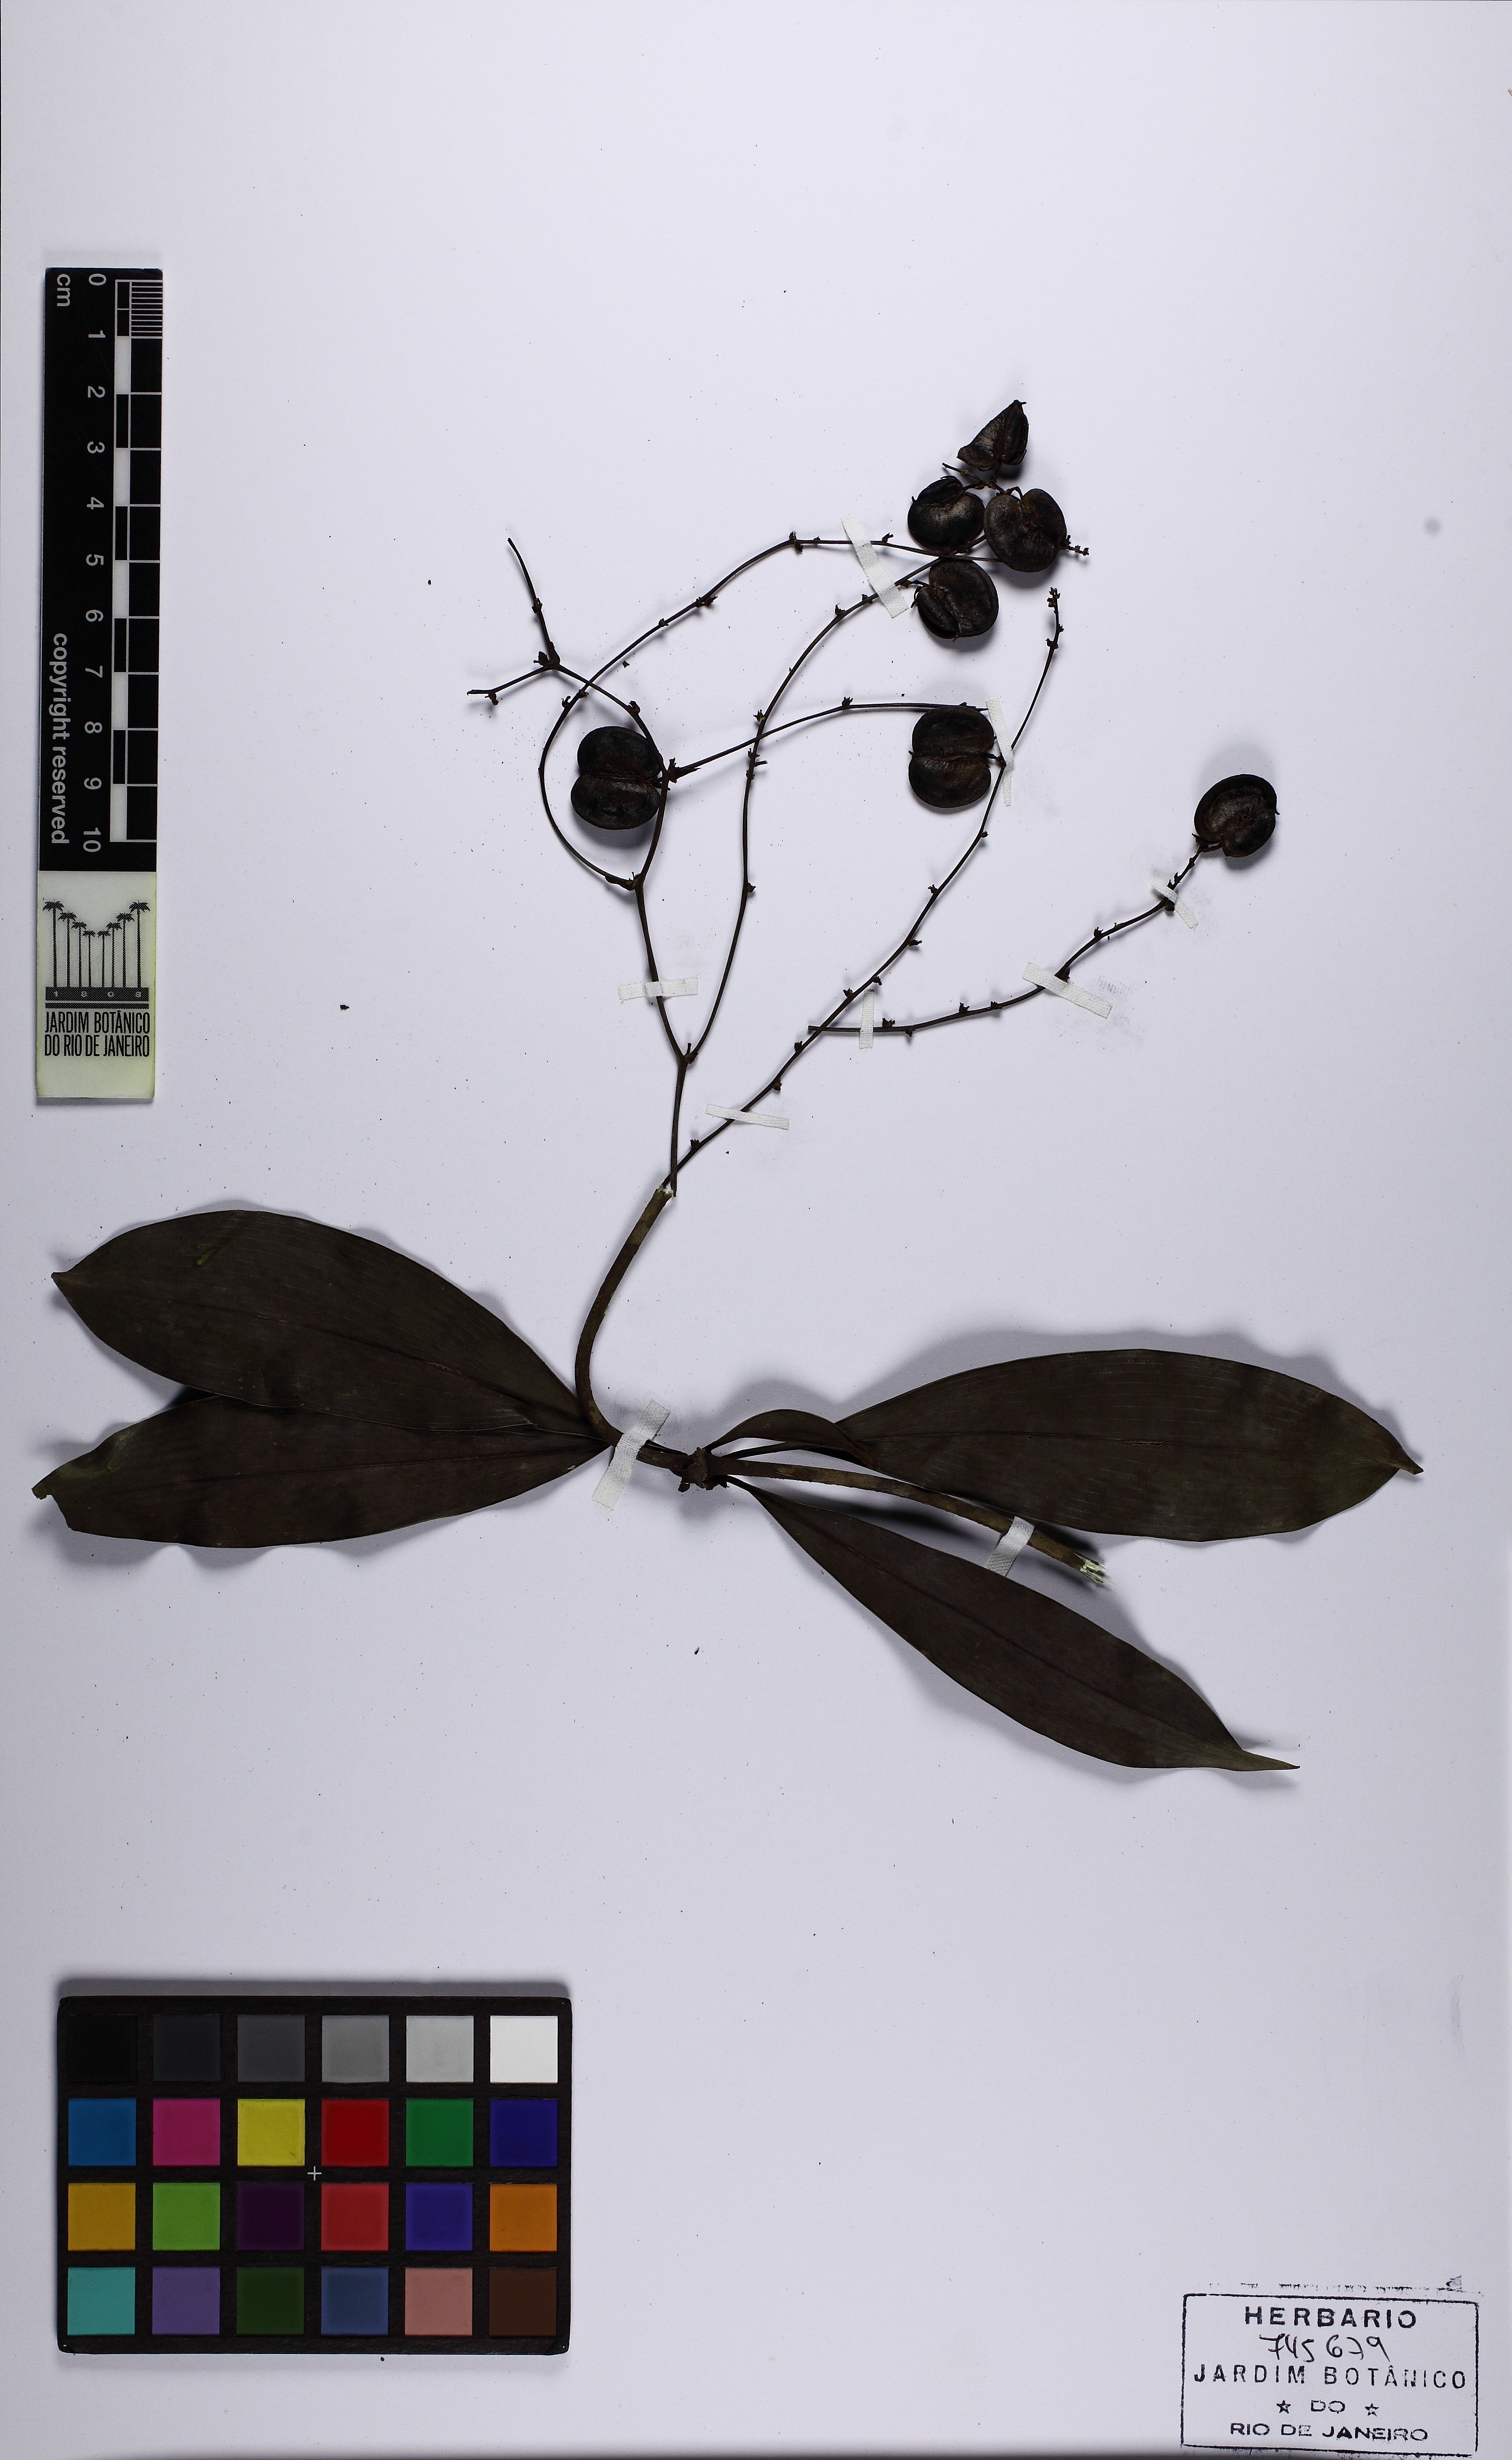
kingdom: Plantae
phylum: Tracheophyta
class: Liliopsida
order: Asparagales
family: Asparagaceae
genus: Herreria
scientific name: Herreria
